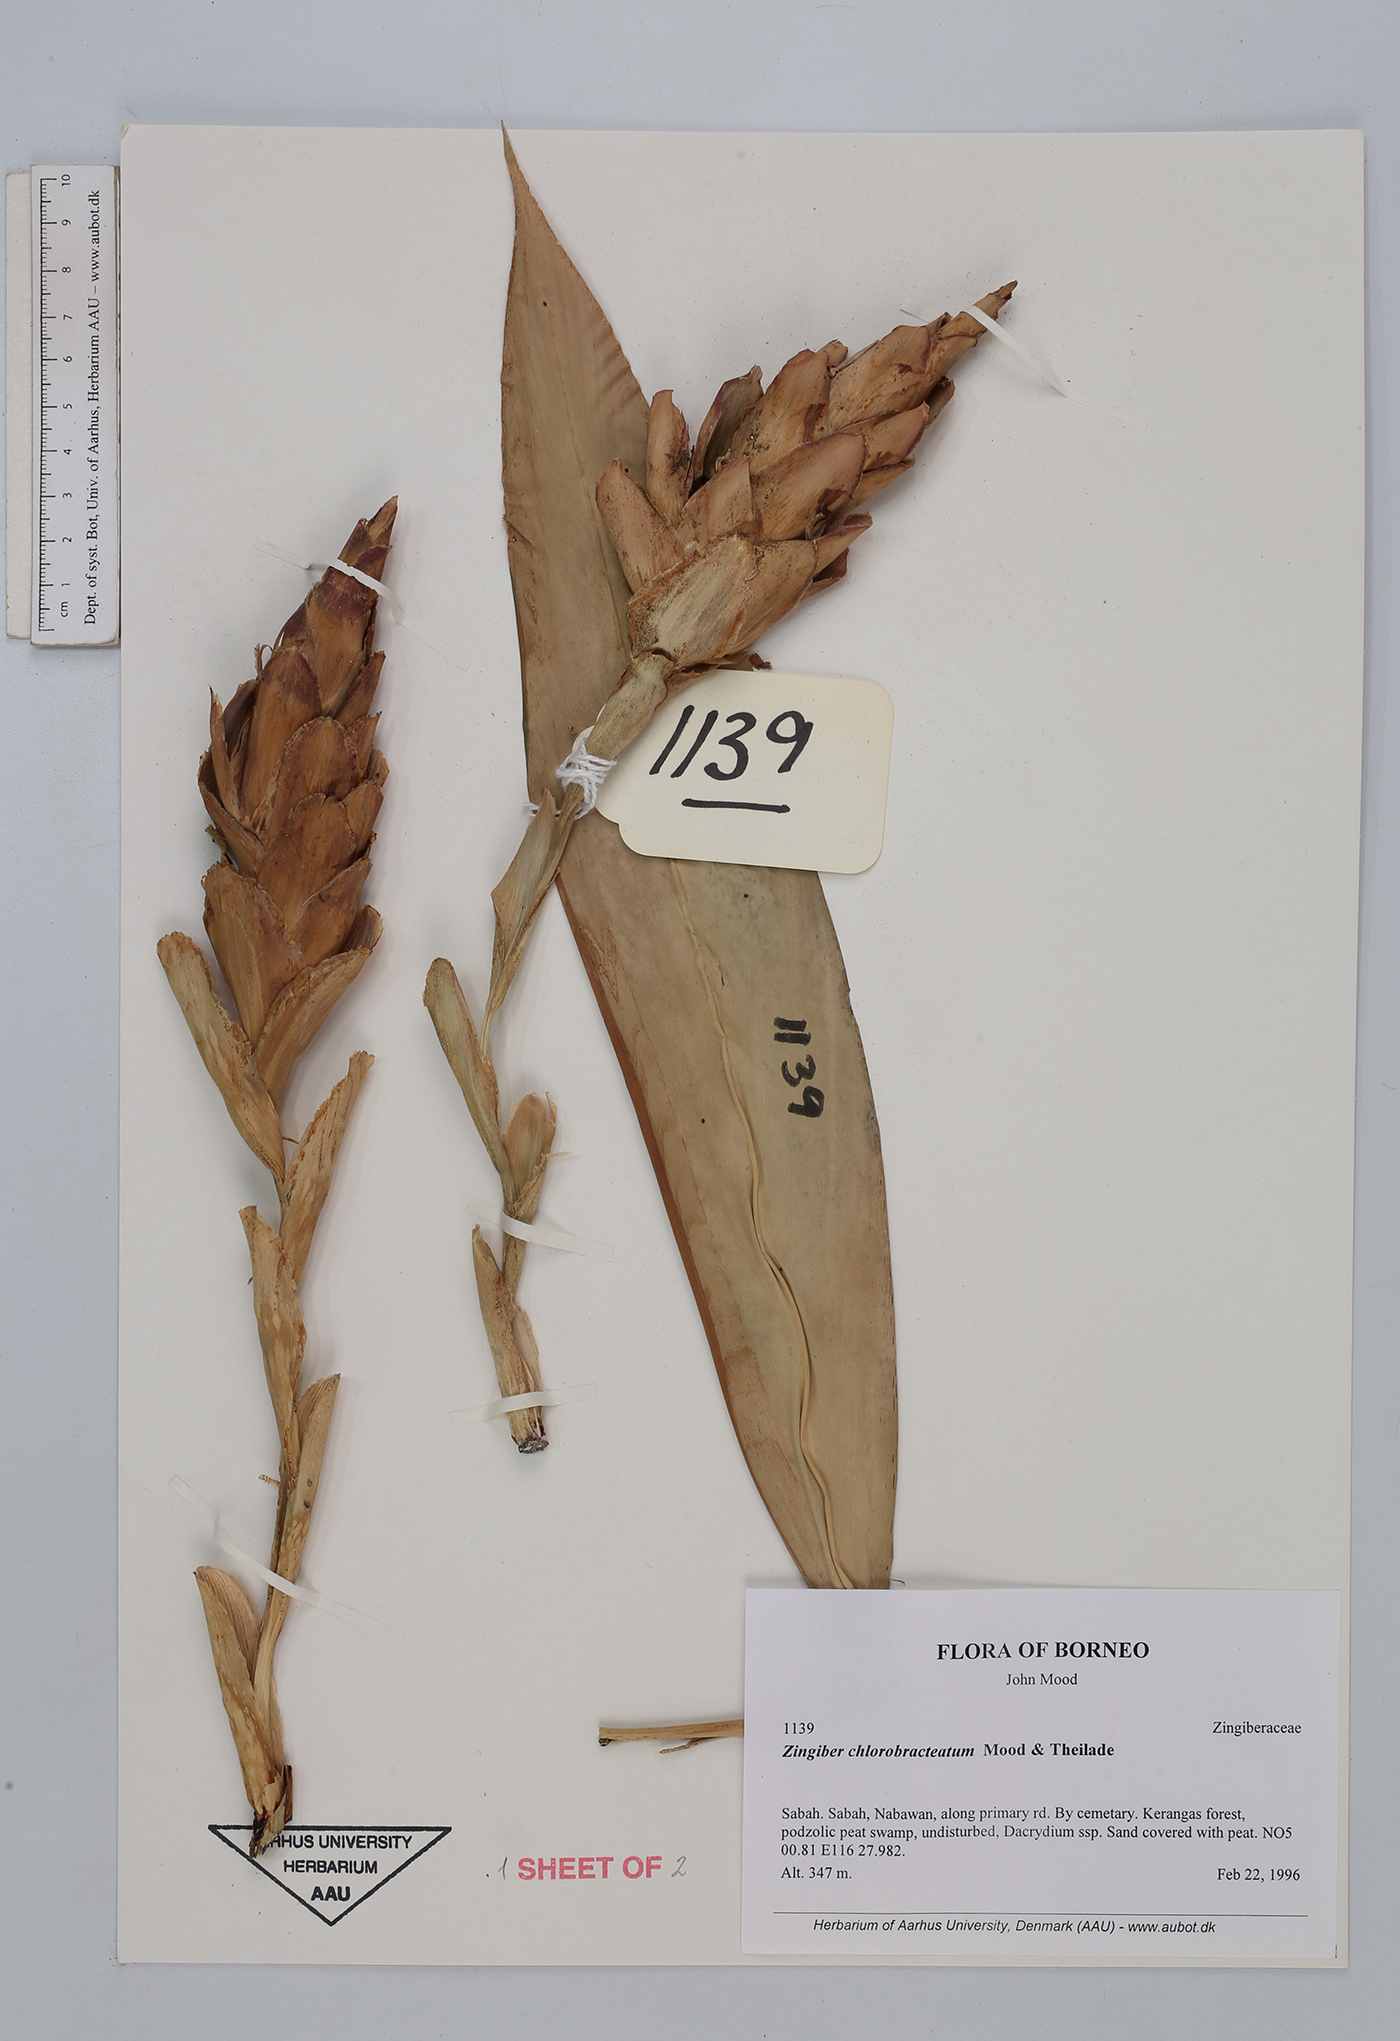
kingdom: Plantae
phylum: Tracheophyta
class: Liliopsida
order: Zingiberales
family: Zingiberaceae
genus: Zingiber
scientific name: Zingiber chlorobracteatum
